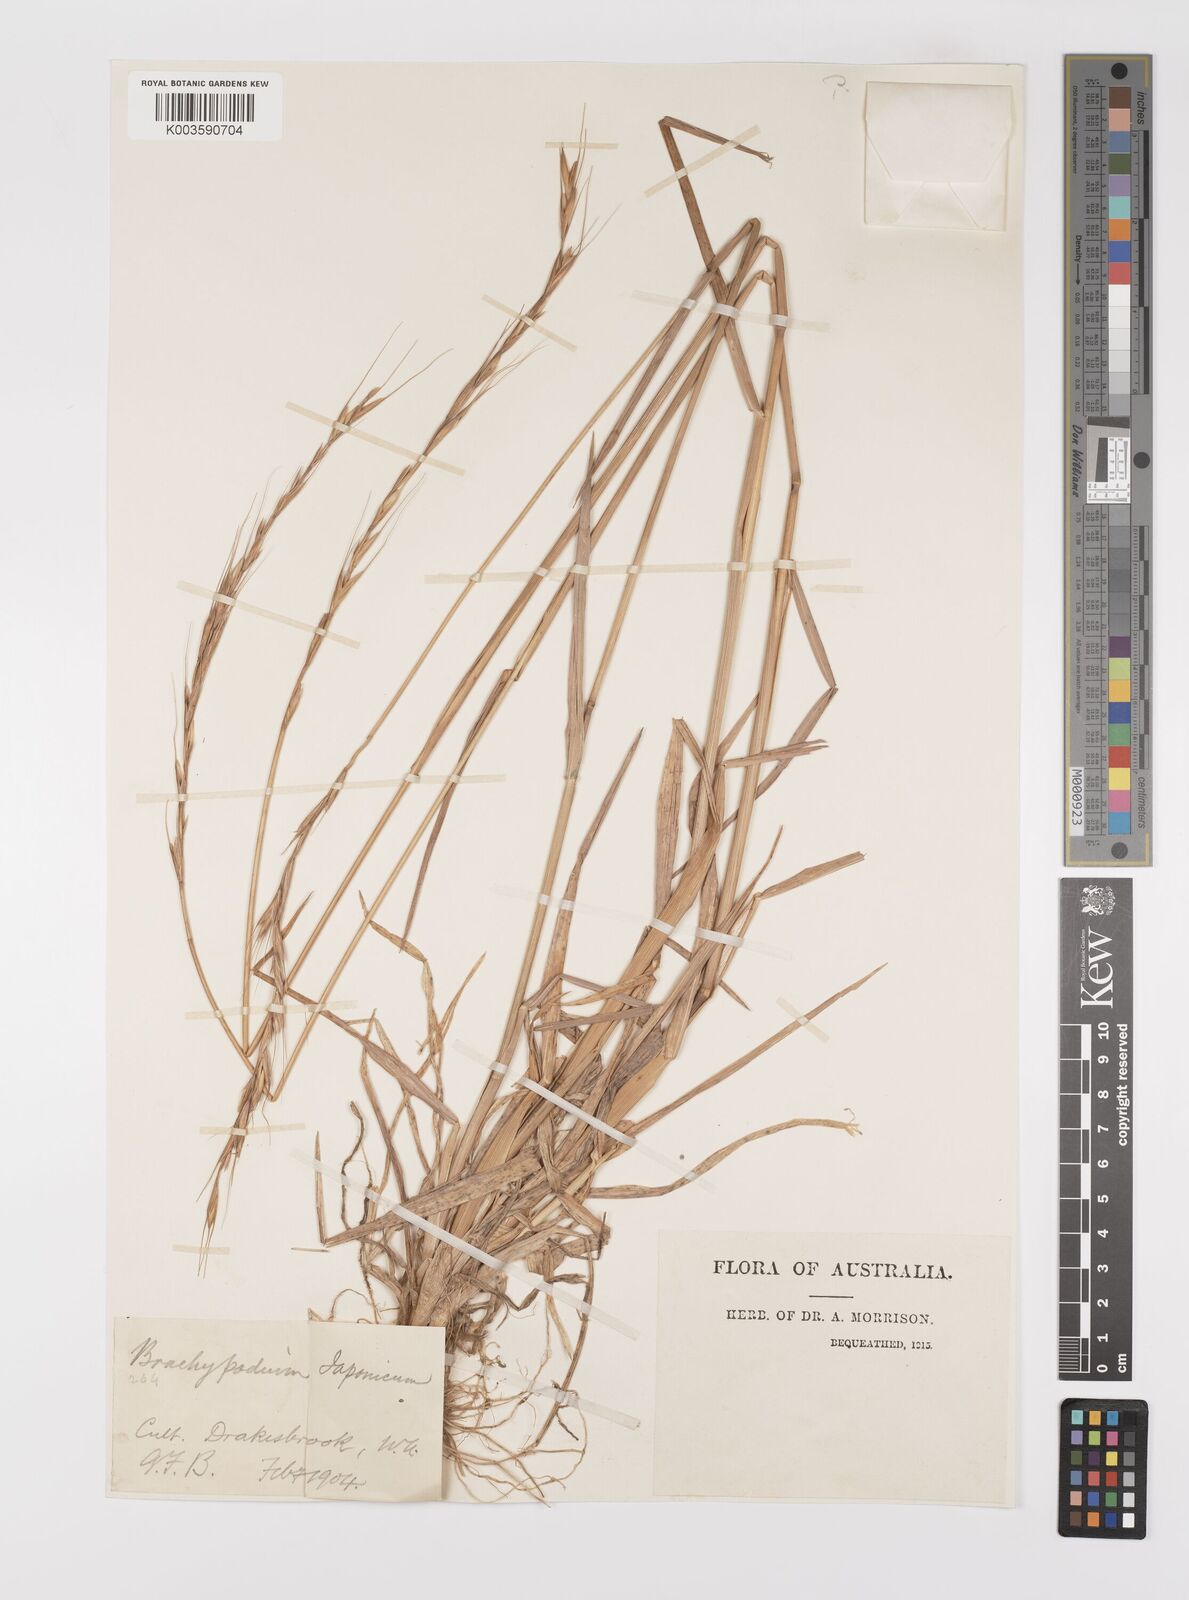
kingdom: Plantae
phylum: Tracheophyta
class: Liliopsida
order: Poales
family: Poaceae
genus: Elymus
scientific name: Elymus
